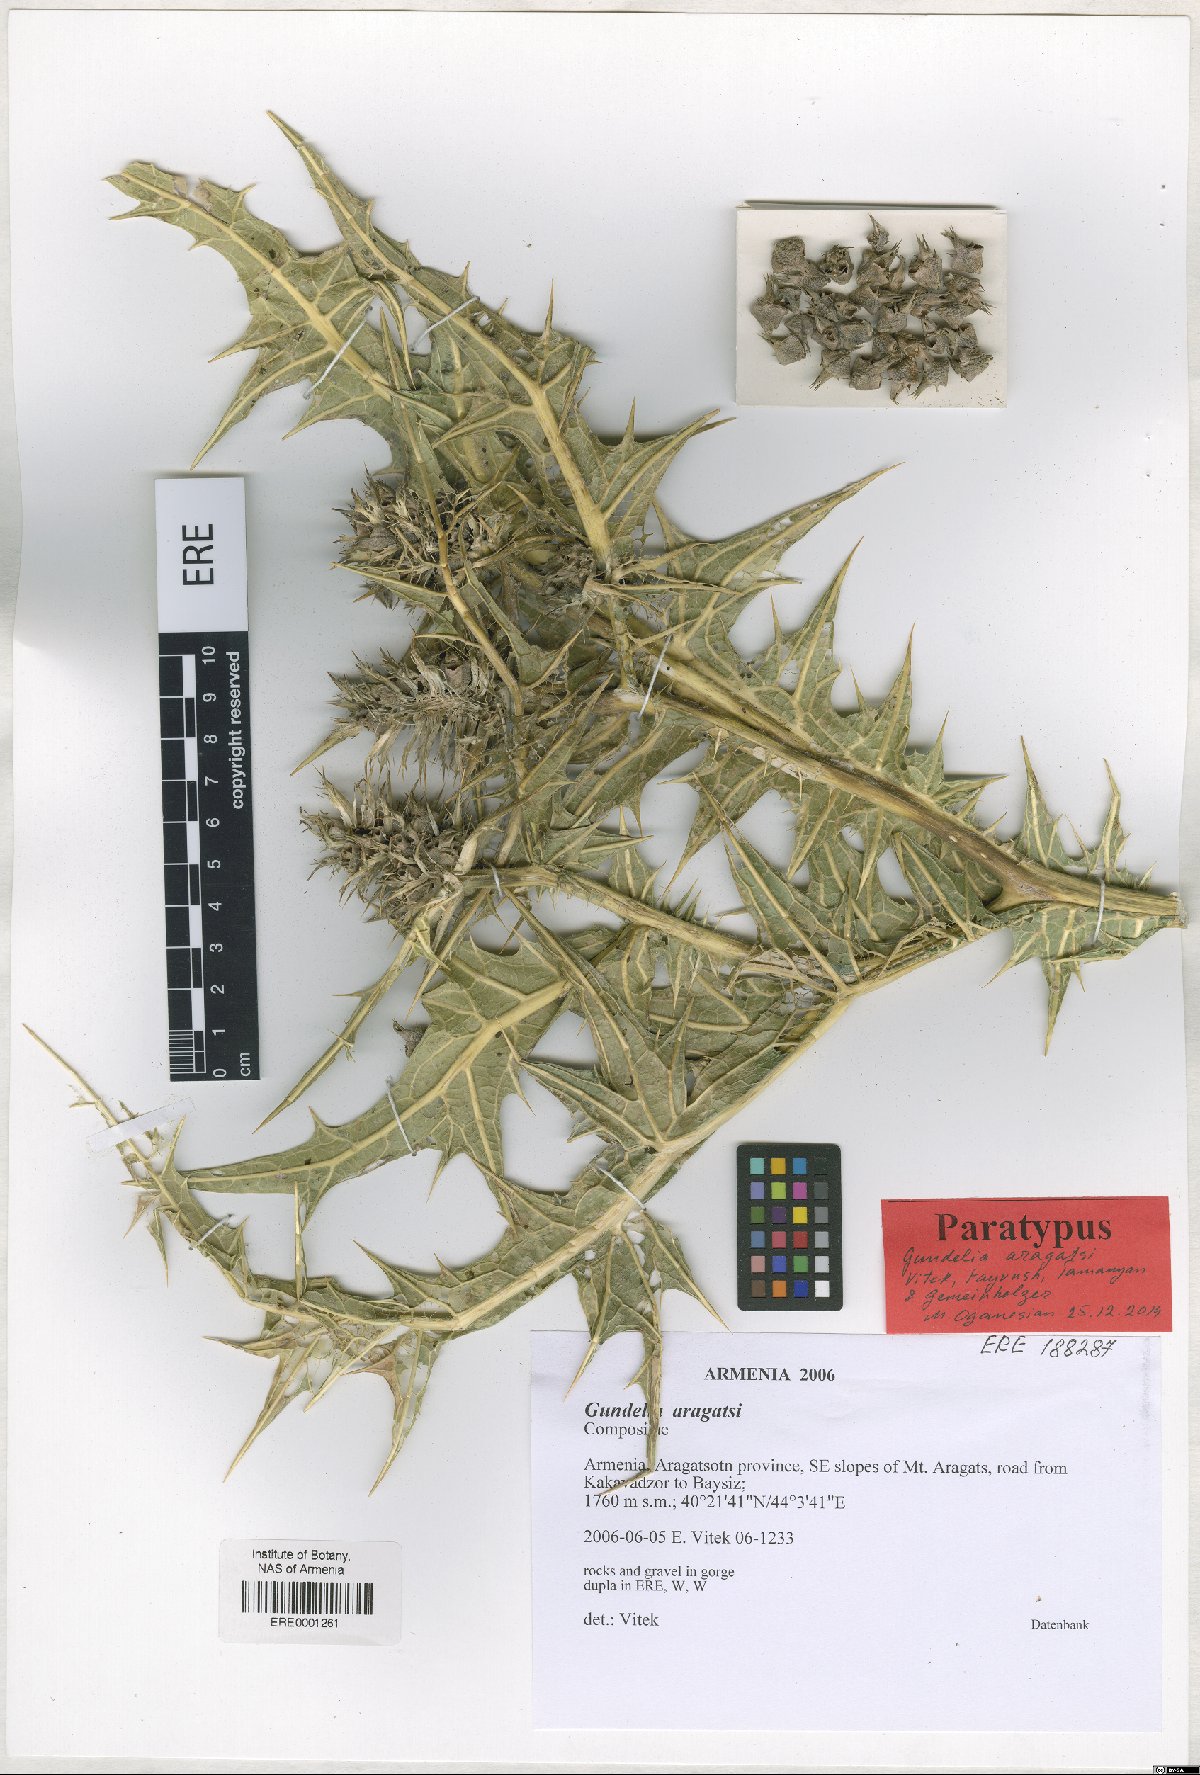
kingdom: Plantae
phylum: Tracheophyta
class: Magnoliopsida
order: Asterales
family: Asteraceae
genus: Gundelia
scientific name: Gundelia aragatsi
